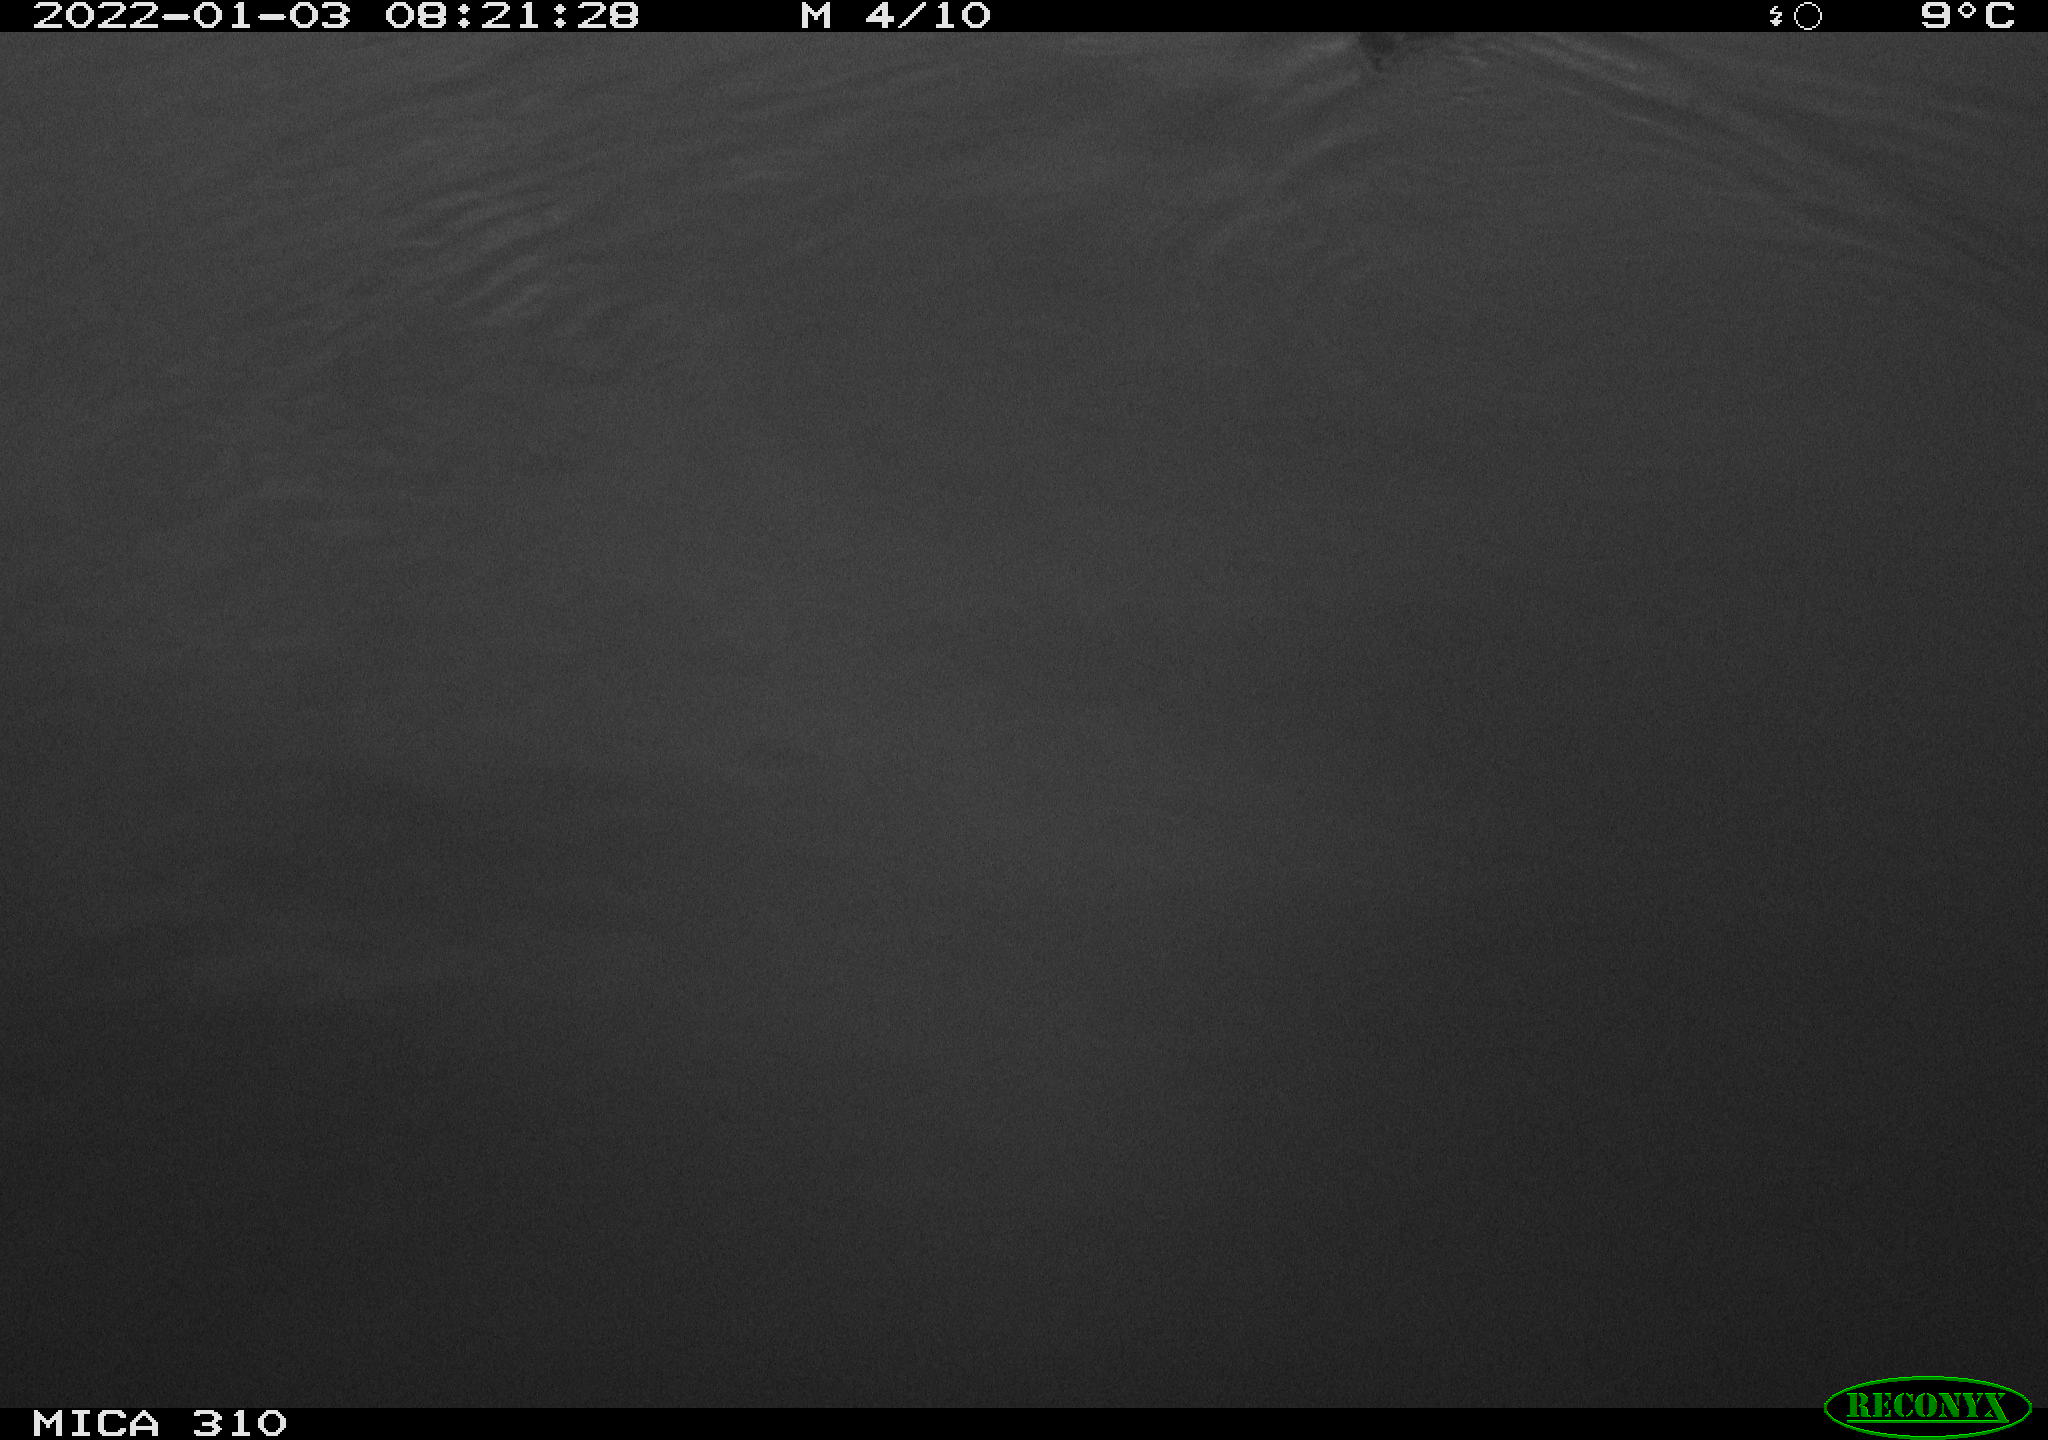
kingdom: Animalia
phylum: Chordata
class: Aves
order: Gruiformes
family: Rallidae
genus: Fulica
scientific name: Fulica atra
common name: Eurasian coot
